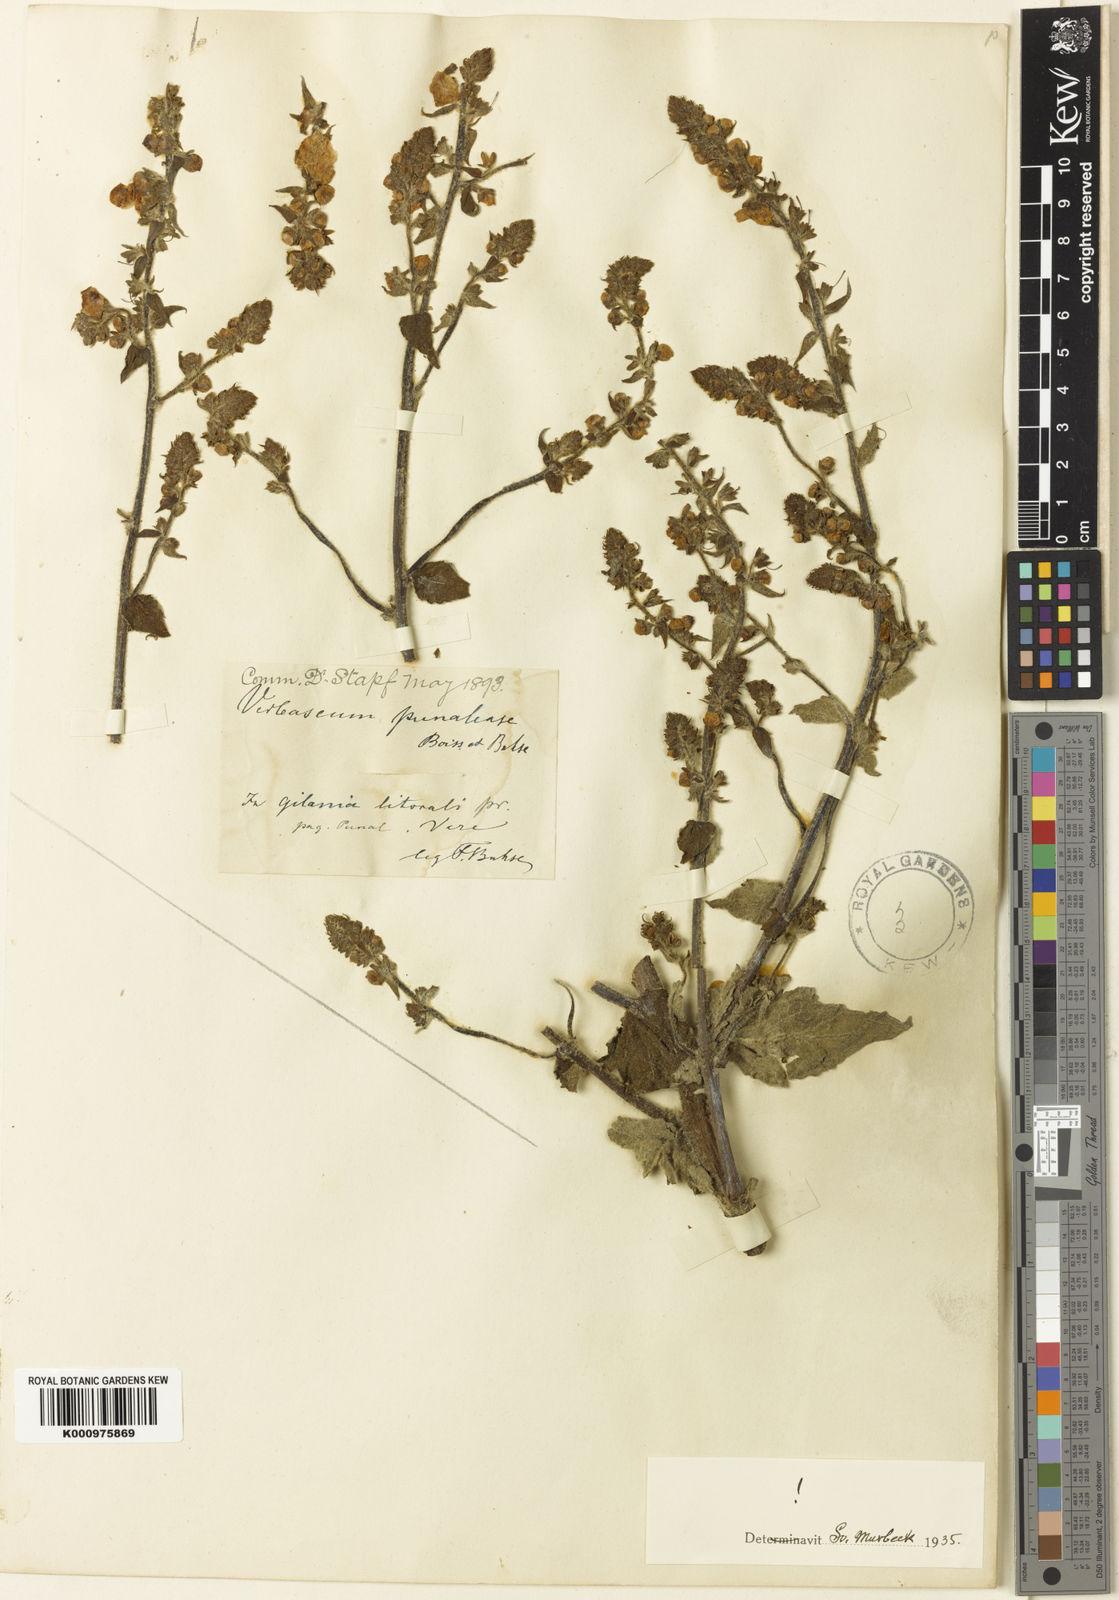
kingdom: Plantae
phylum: Tracheophyta
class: Magnoliopsida
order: Lamiales
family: Scrophulariaceae
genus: Verbascum
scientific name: Verbascum
